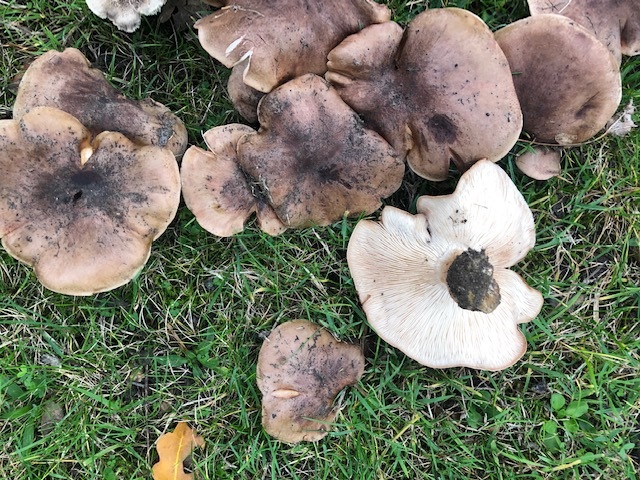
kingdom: Fungi
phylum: Basidiomycota
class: Agaricomycetes
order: Agaricales
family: Tricholomataceae
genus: Tricholoma
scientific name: Tricholoma populinum
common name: poppel-ridderhat
